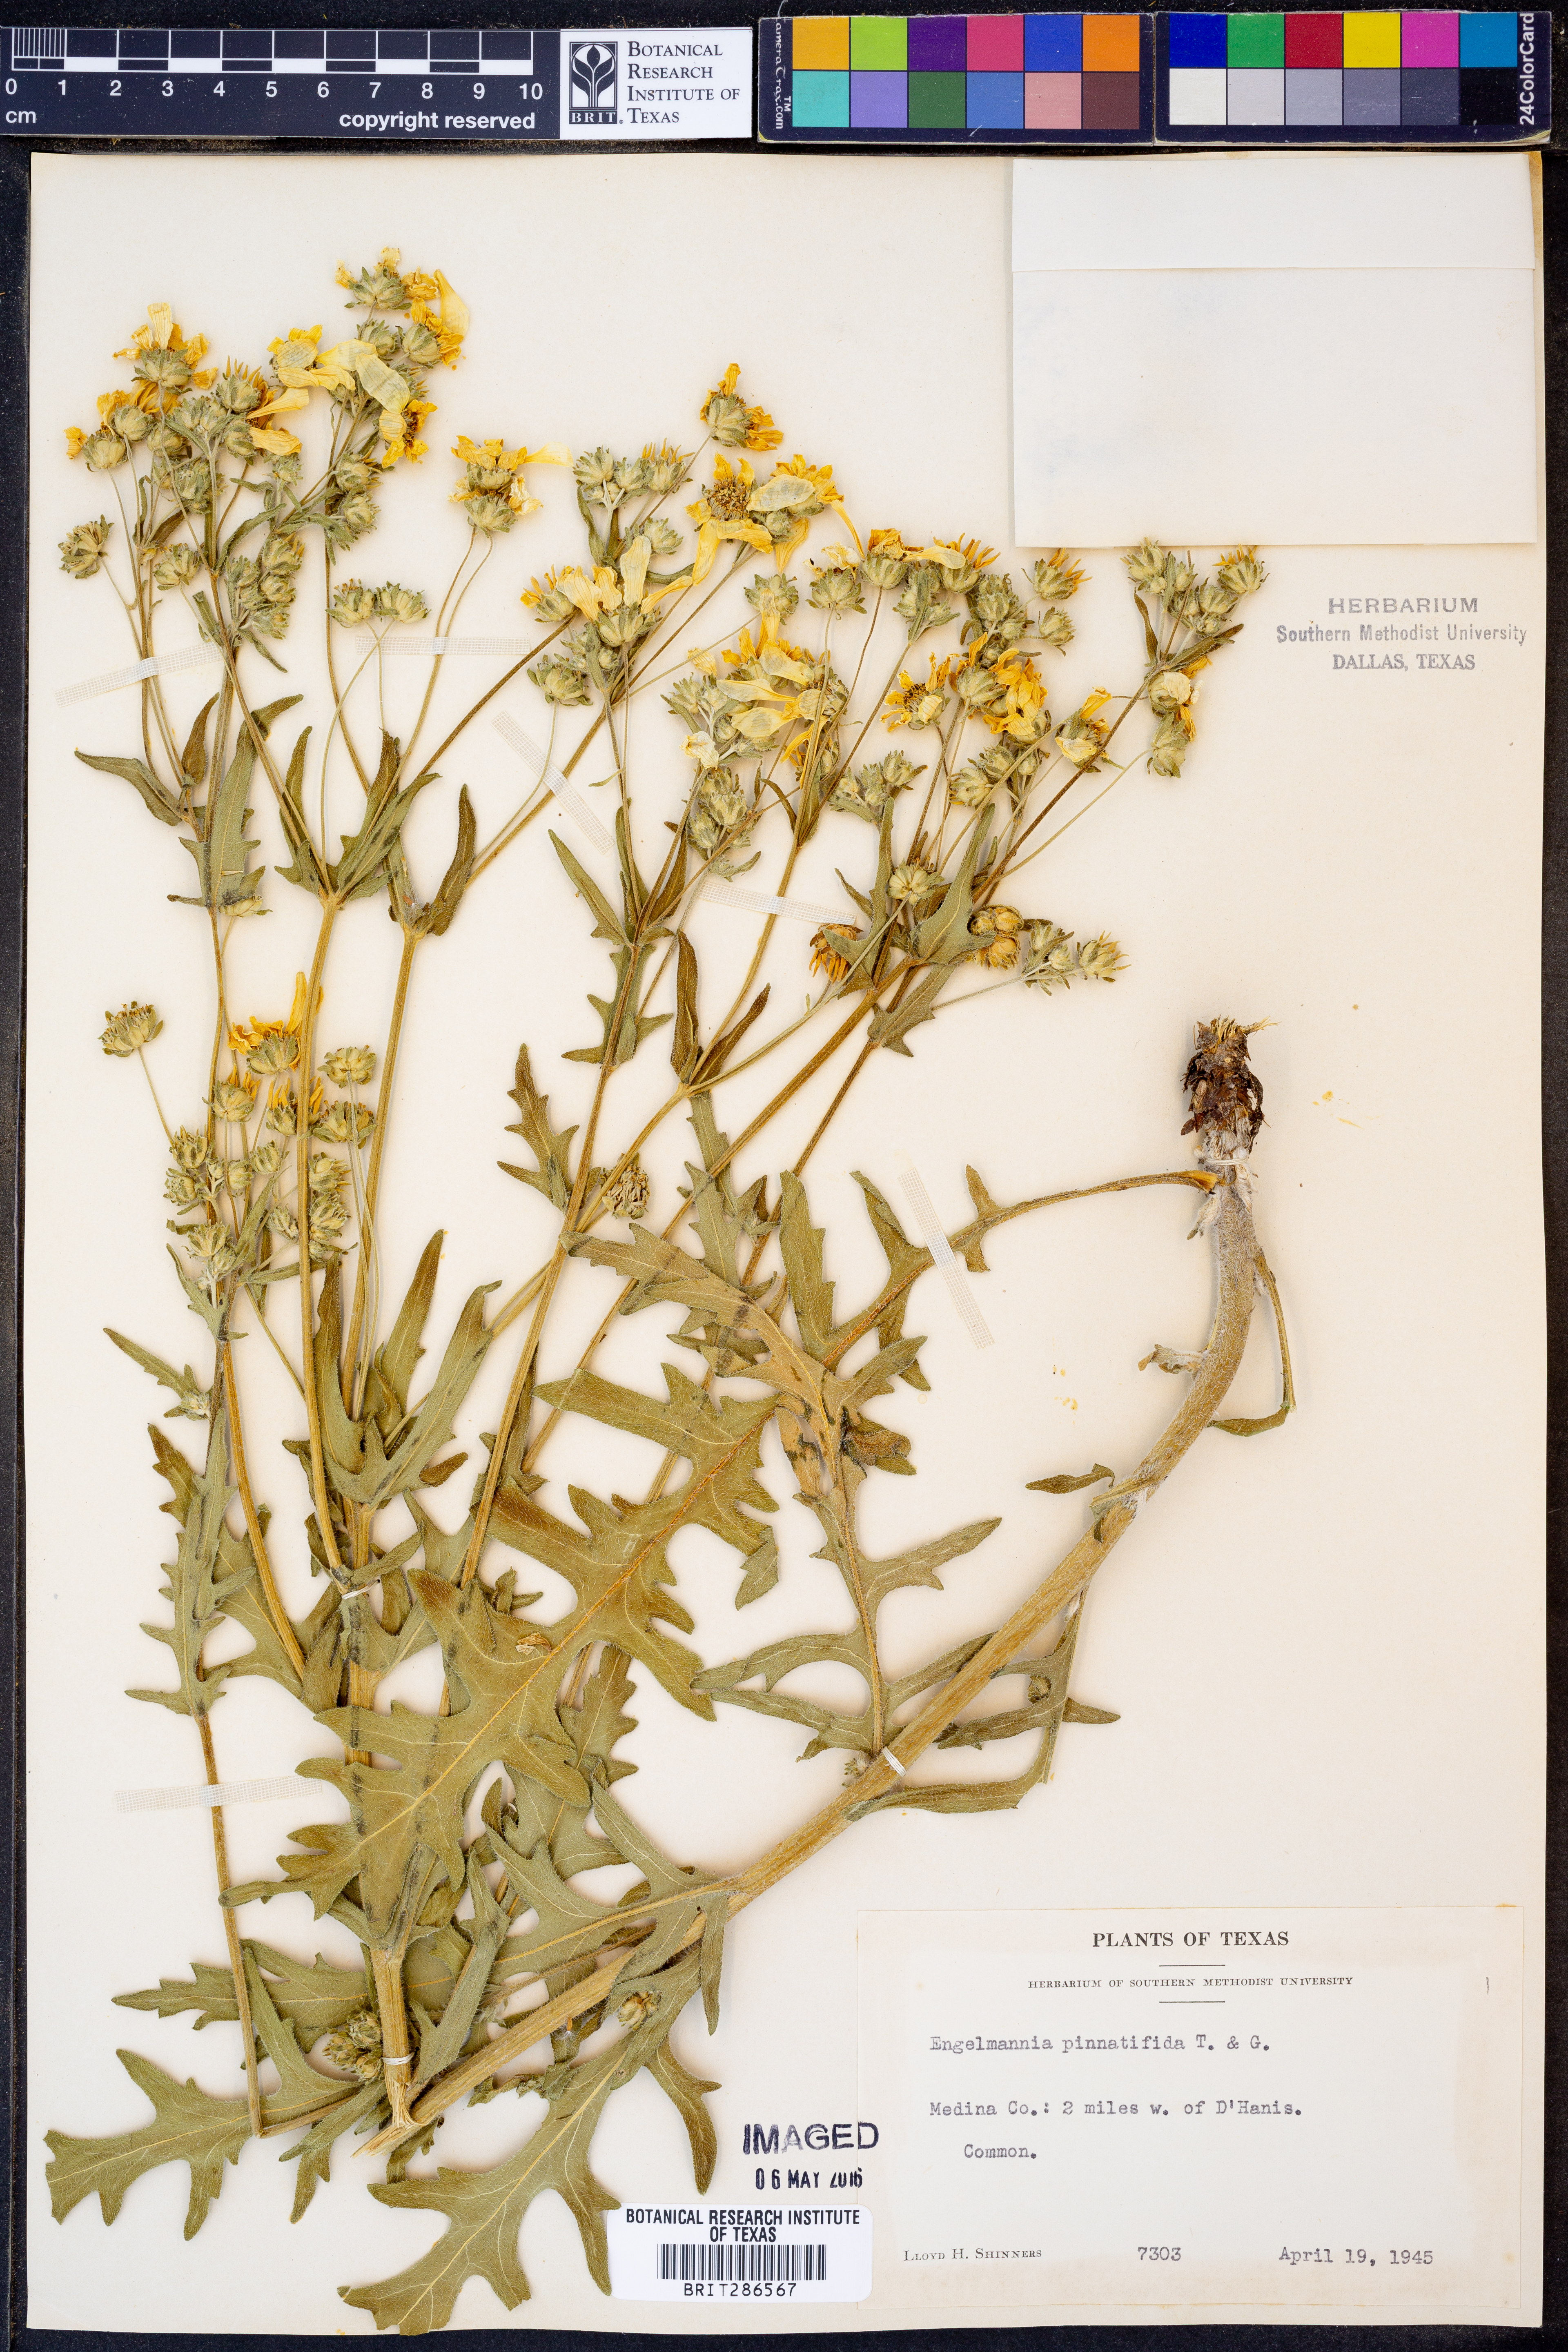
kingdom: Plantae
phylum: Tracheophyta
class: Magnoliopsida
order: Asterales
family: Asteraceae
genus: Engelmannia
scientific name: Engelmannia peristenia
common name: Engelmann's daisy
